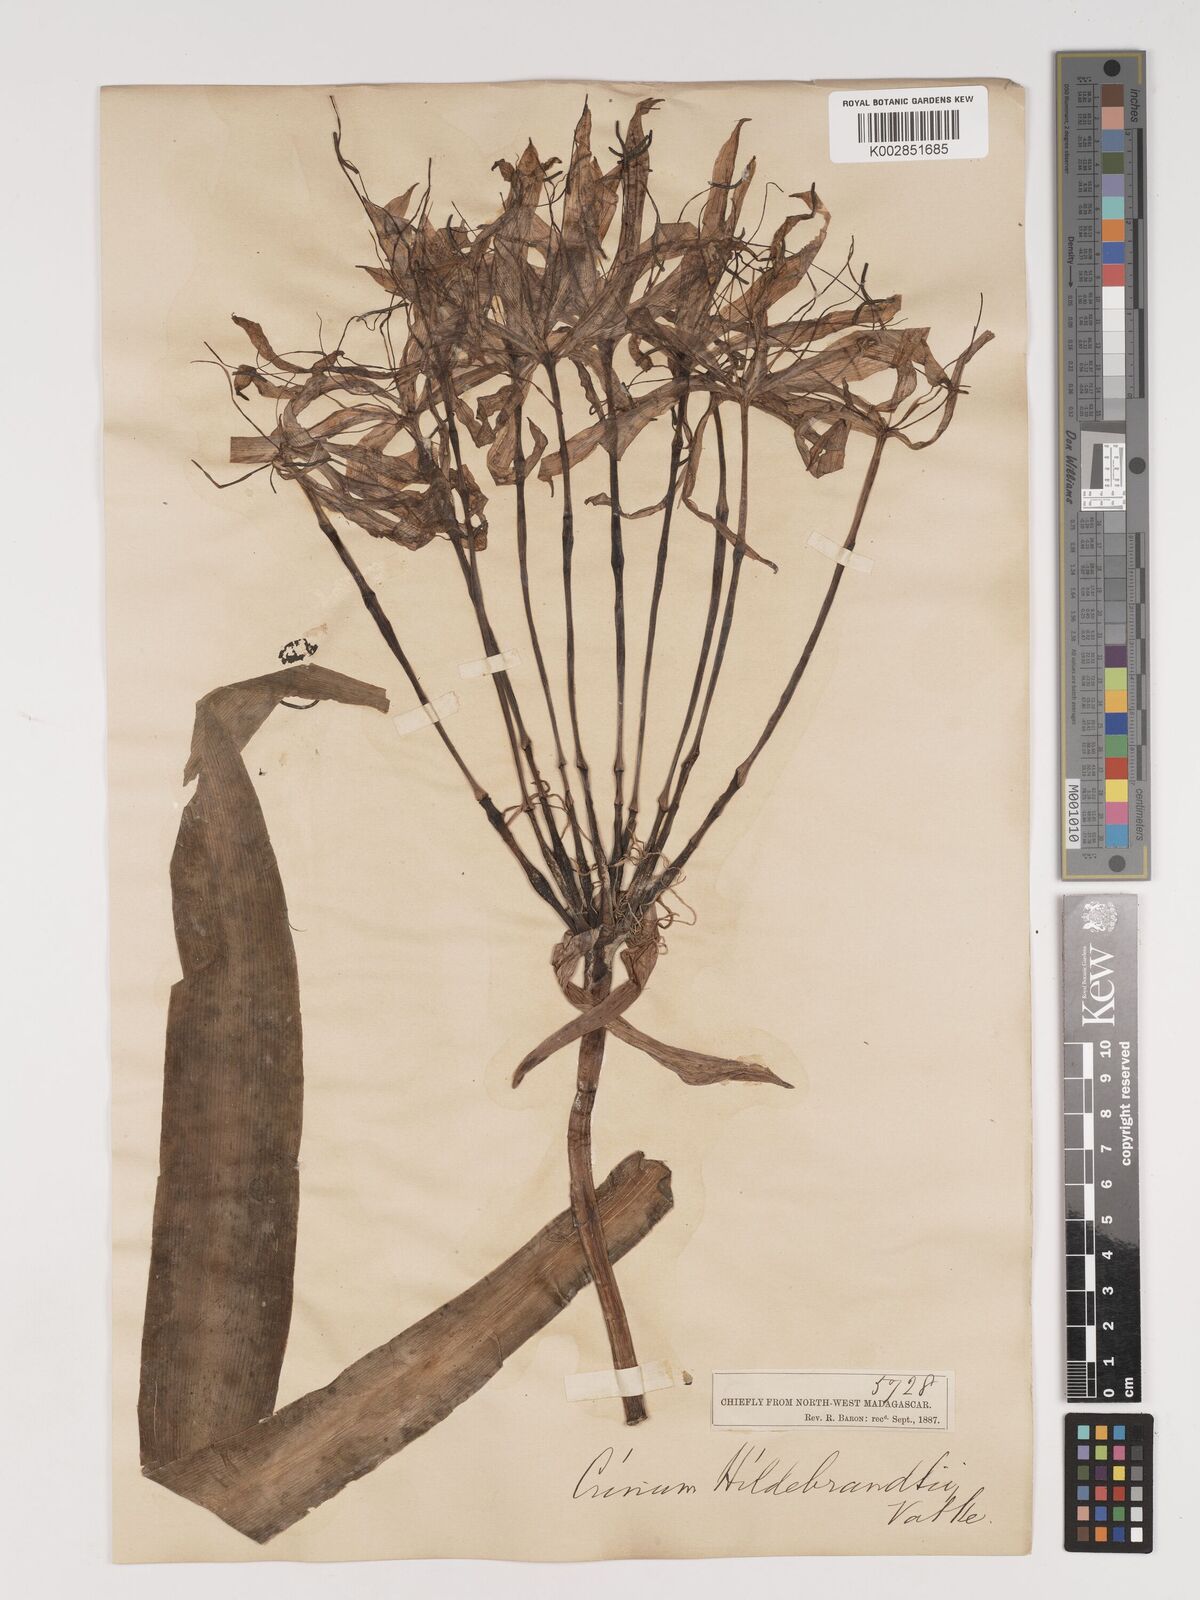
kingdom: Plantae
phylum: Tracheophyta
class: Liliopsida
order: Asparagales
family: Amaryllidaceae
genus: Crinum
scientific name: Crinum hildebrandtii
